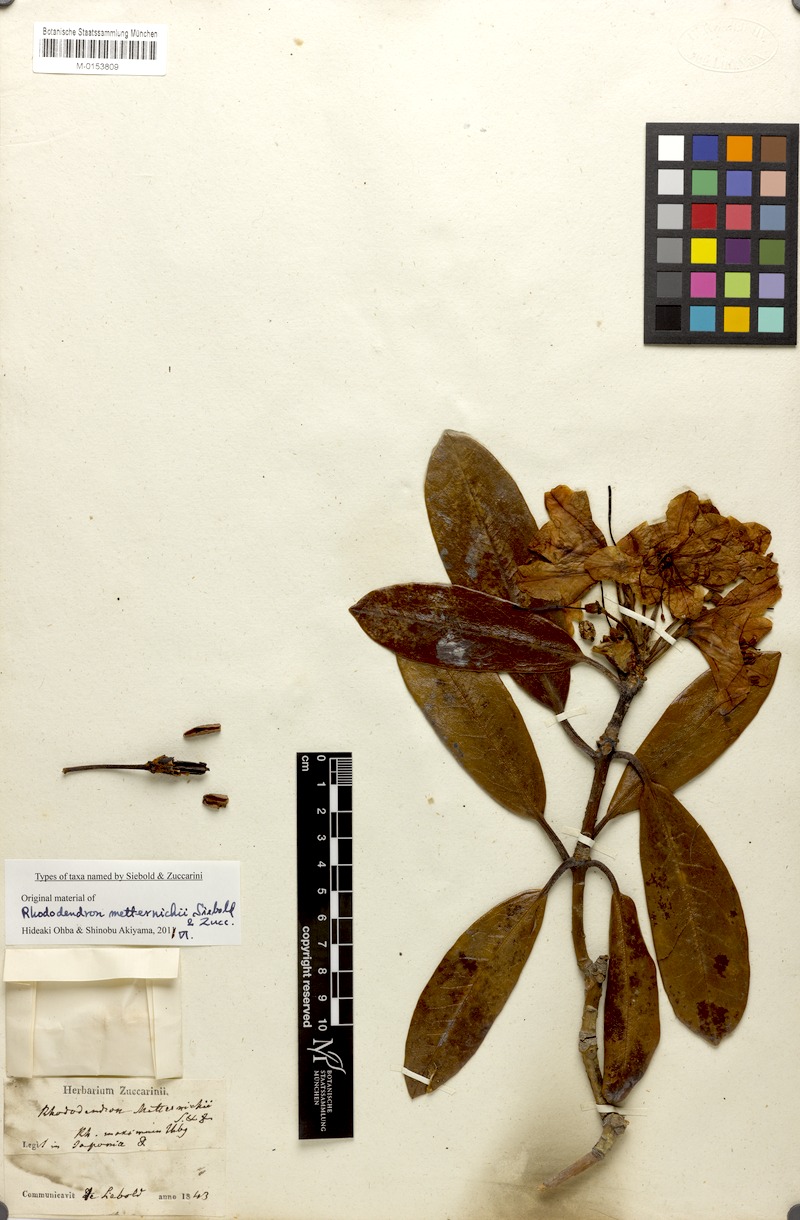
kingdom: Plantae
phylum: Tracheophyta
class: Magnoliopsida
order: Ericales
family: Ericaceae
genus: Rhododendron
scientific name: Rhododendron japonoheptamerum
